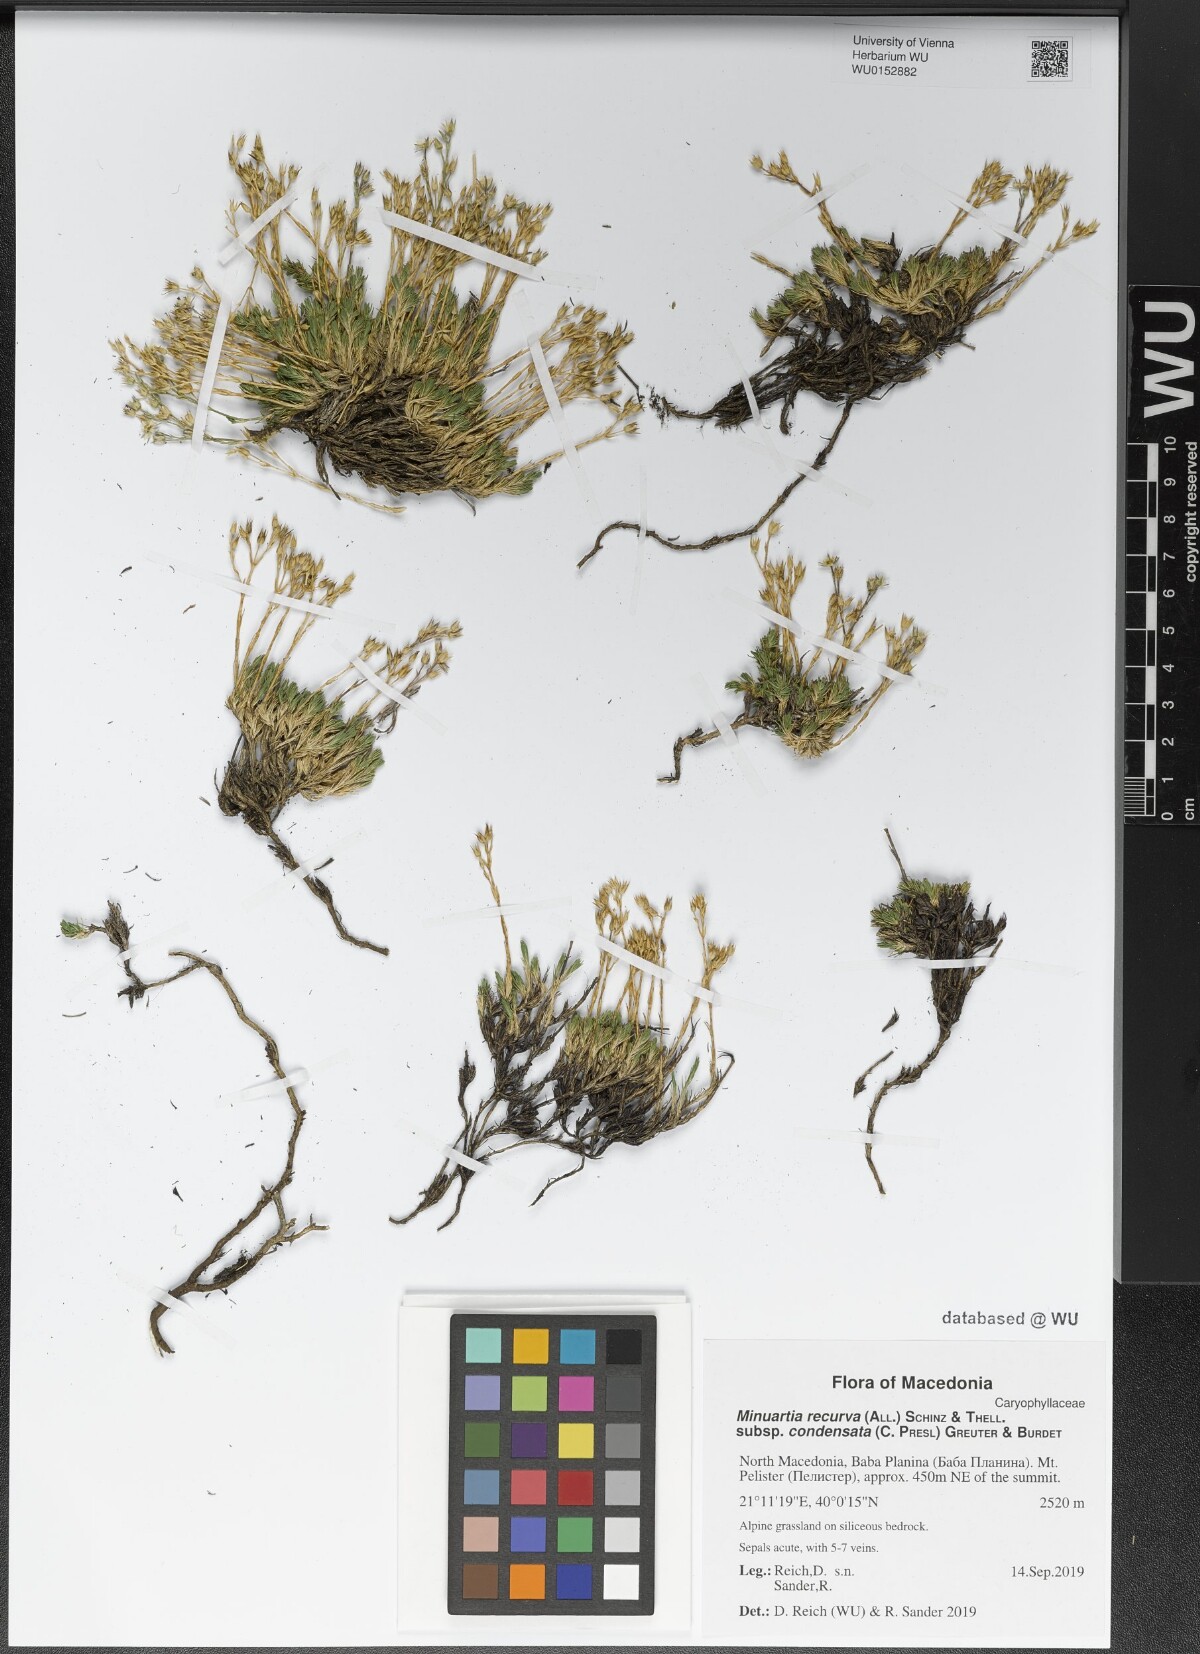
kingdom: Plantae
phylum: Tracheophyta
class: Magnoliopsida
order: Caryophyllales
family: Caryophyllaceae
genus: Minuartia
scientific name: Minuartia recurva
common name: Recurved sandwort
